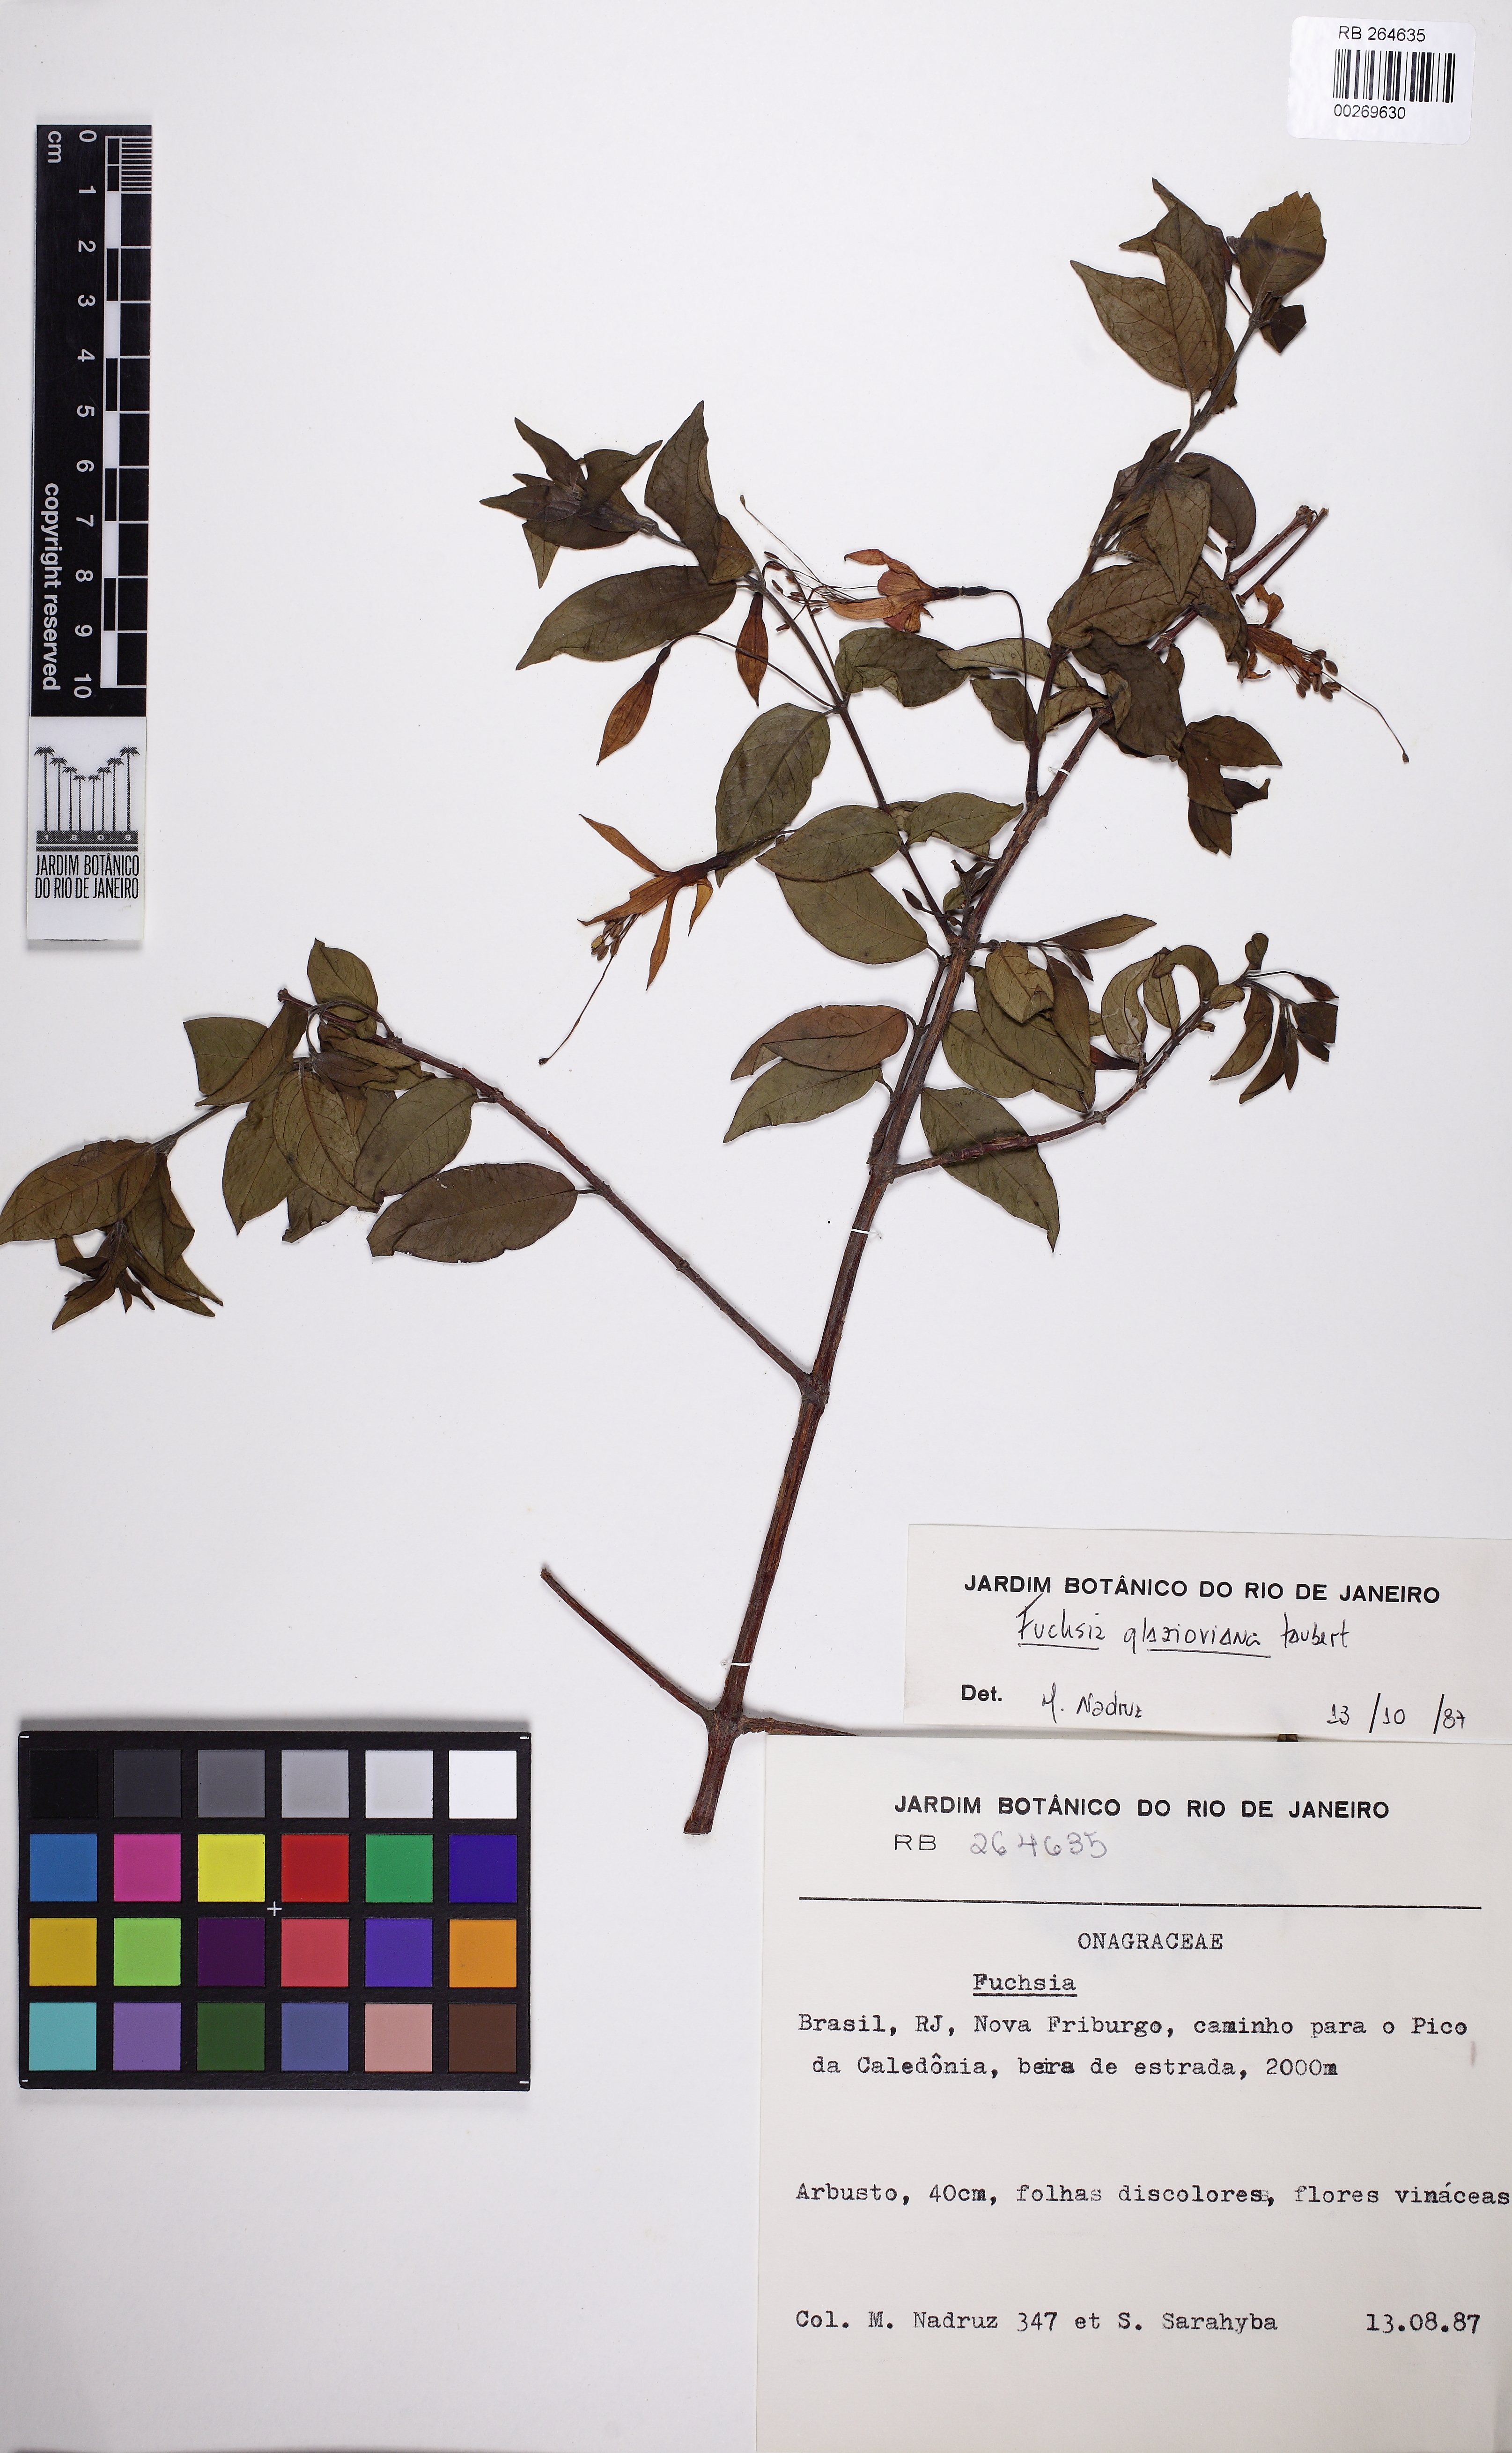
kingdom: Plantae
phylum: Tracheophyta
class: Magnoliopsida
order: Myrtales
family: Onagraceae
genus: Fuchsia
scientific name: Fuchsia glazioviana
